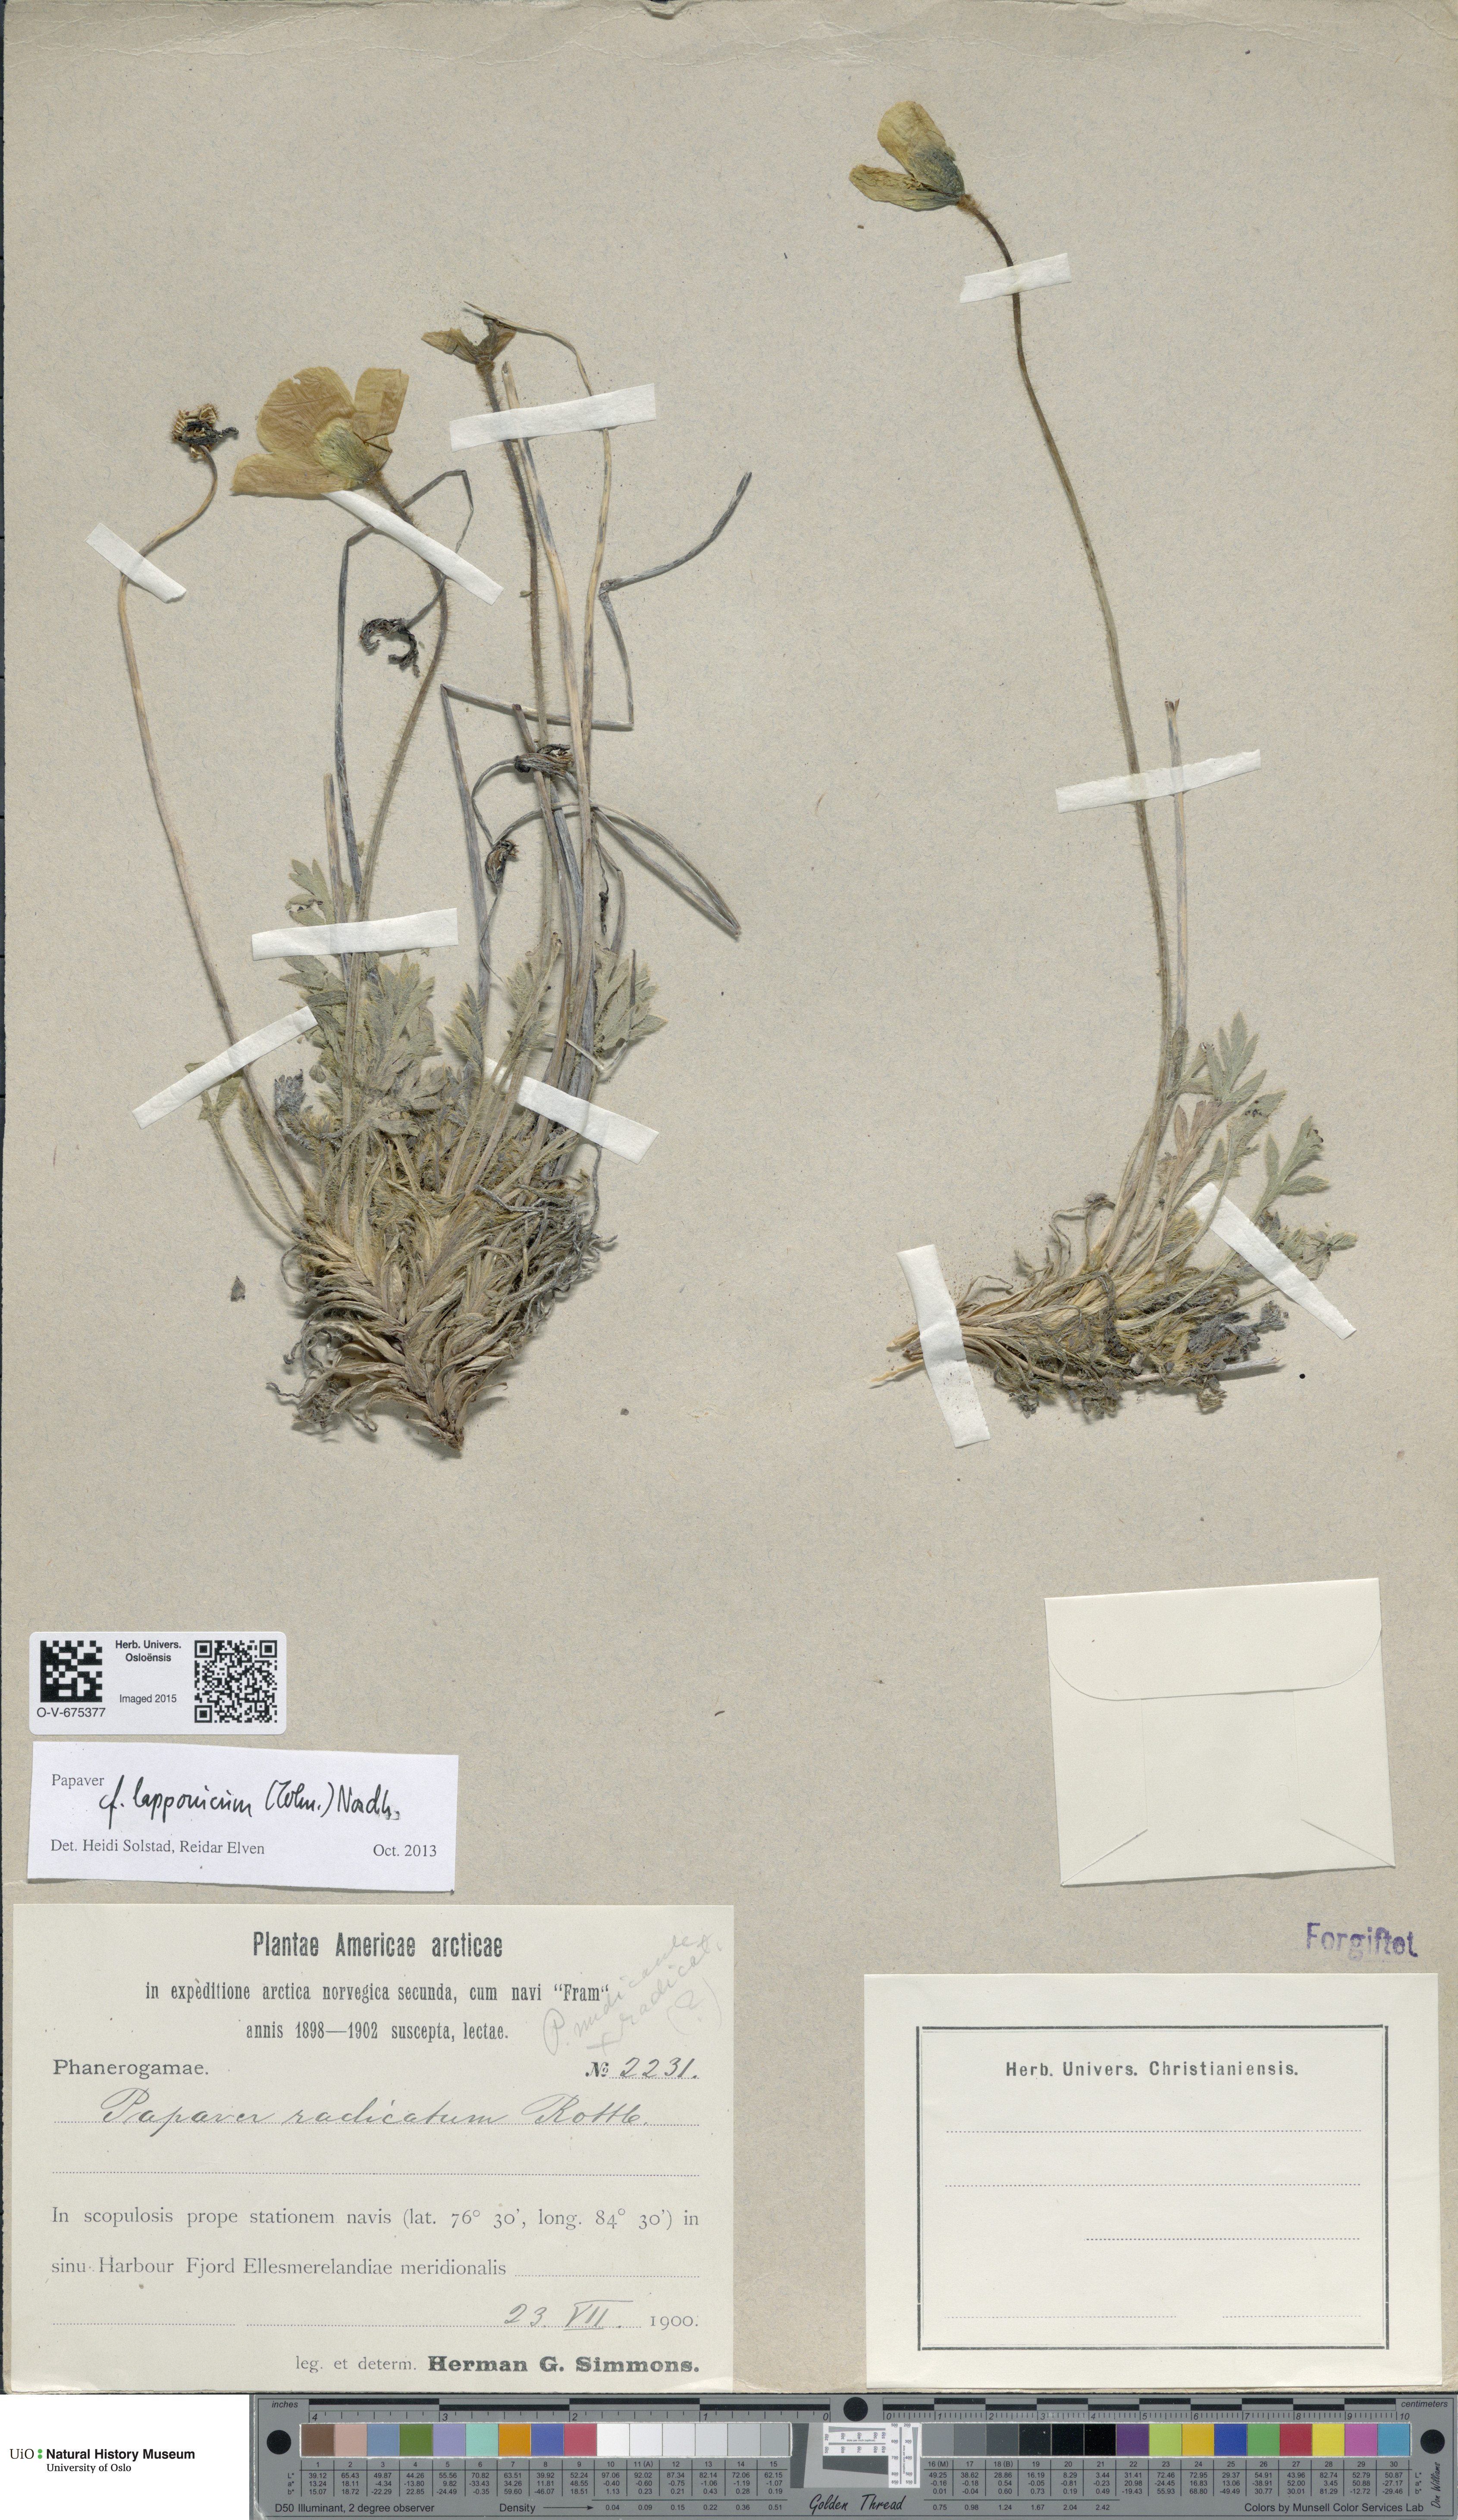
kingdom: Plantae
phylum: Tracheophyta
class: Magnoliopsida
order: Ranunculales
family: Papaveraceae
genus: Papaver
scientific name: Papaver radicatum
